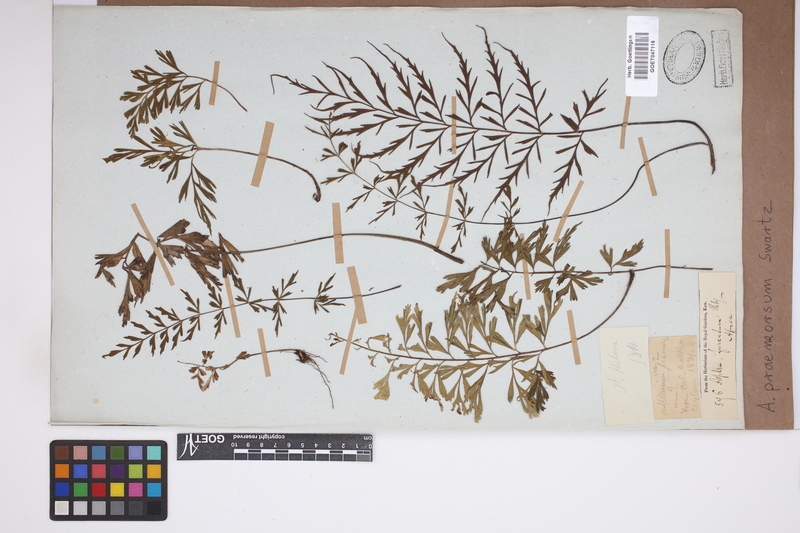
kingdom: Plantae
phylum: Tracheophyta
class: Polypodiopsida
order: Polypodiales
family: Aspleniaceae
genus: Asplenium
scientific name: Asplenium praemorsum
